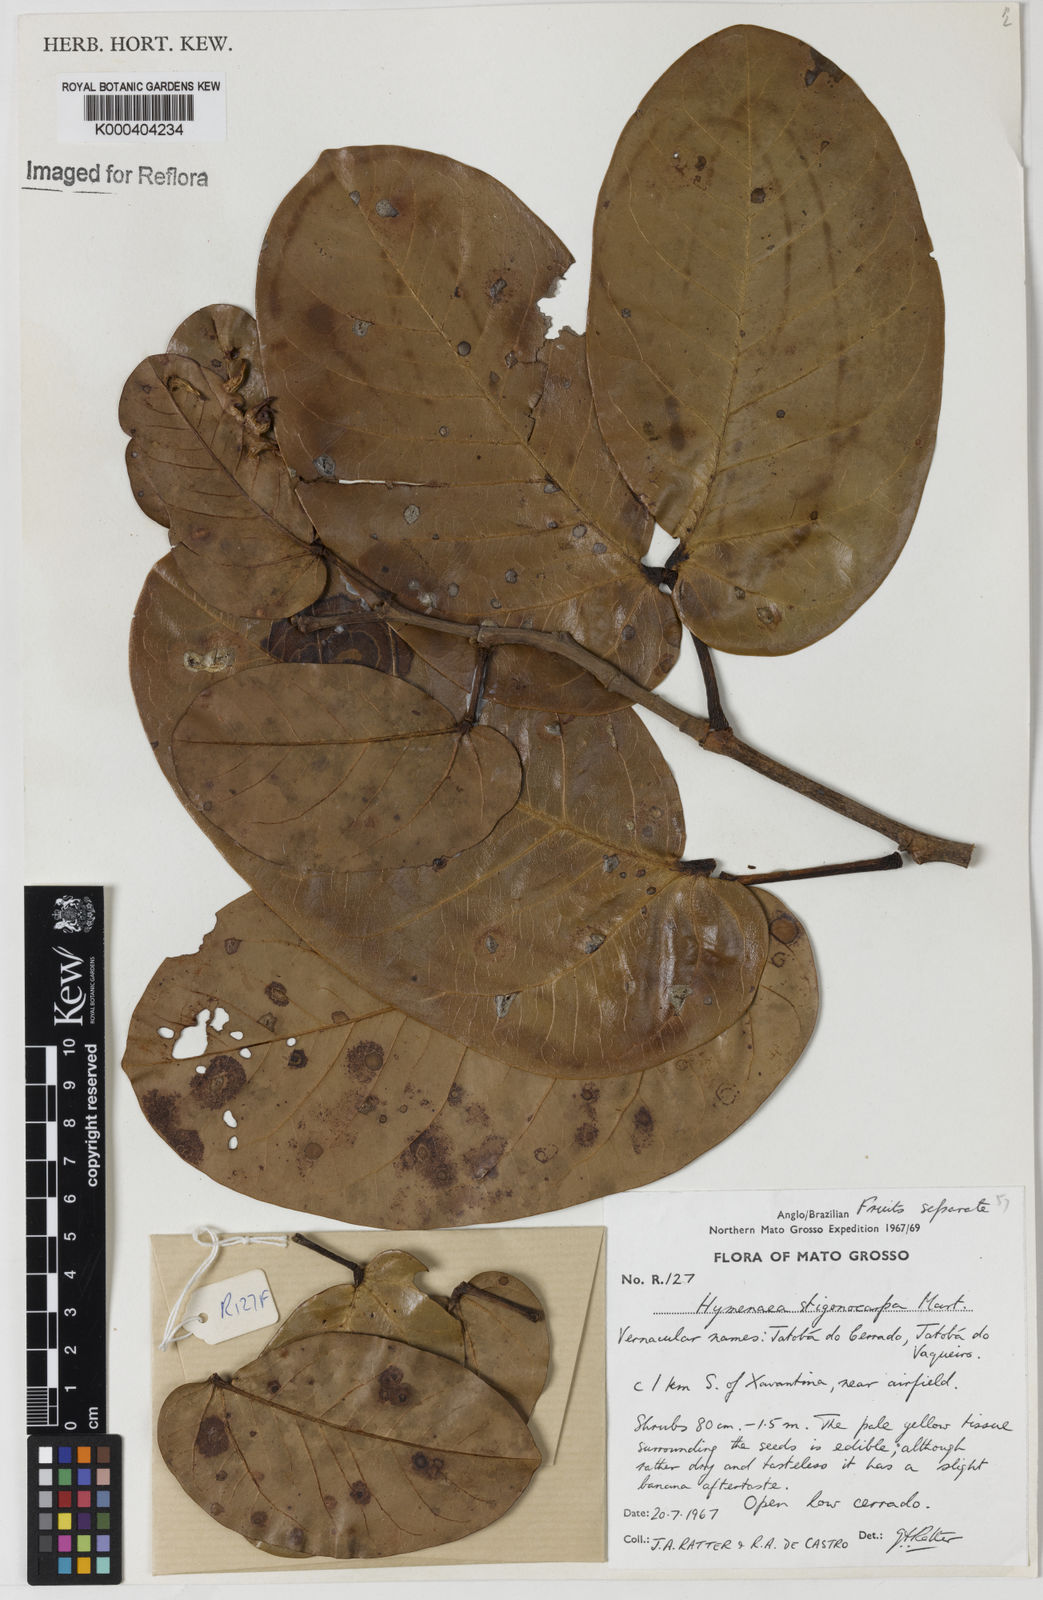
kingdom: Plantae
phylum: Tracheophyta
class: Magnoliopsida
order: Fabales
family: Fabaceae
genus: Hymenaea
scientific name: Hymenaea stigonocarpa
